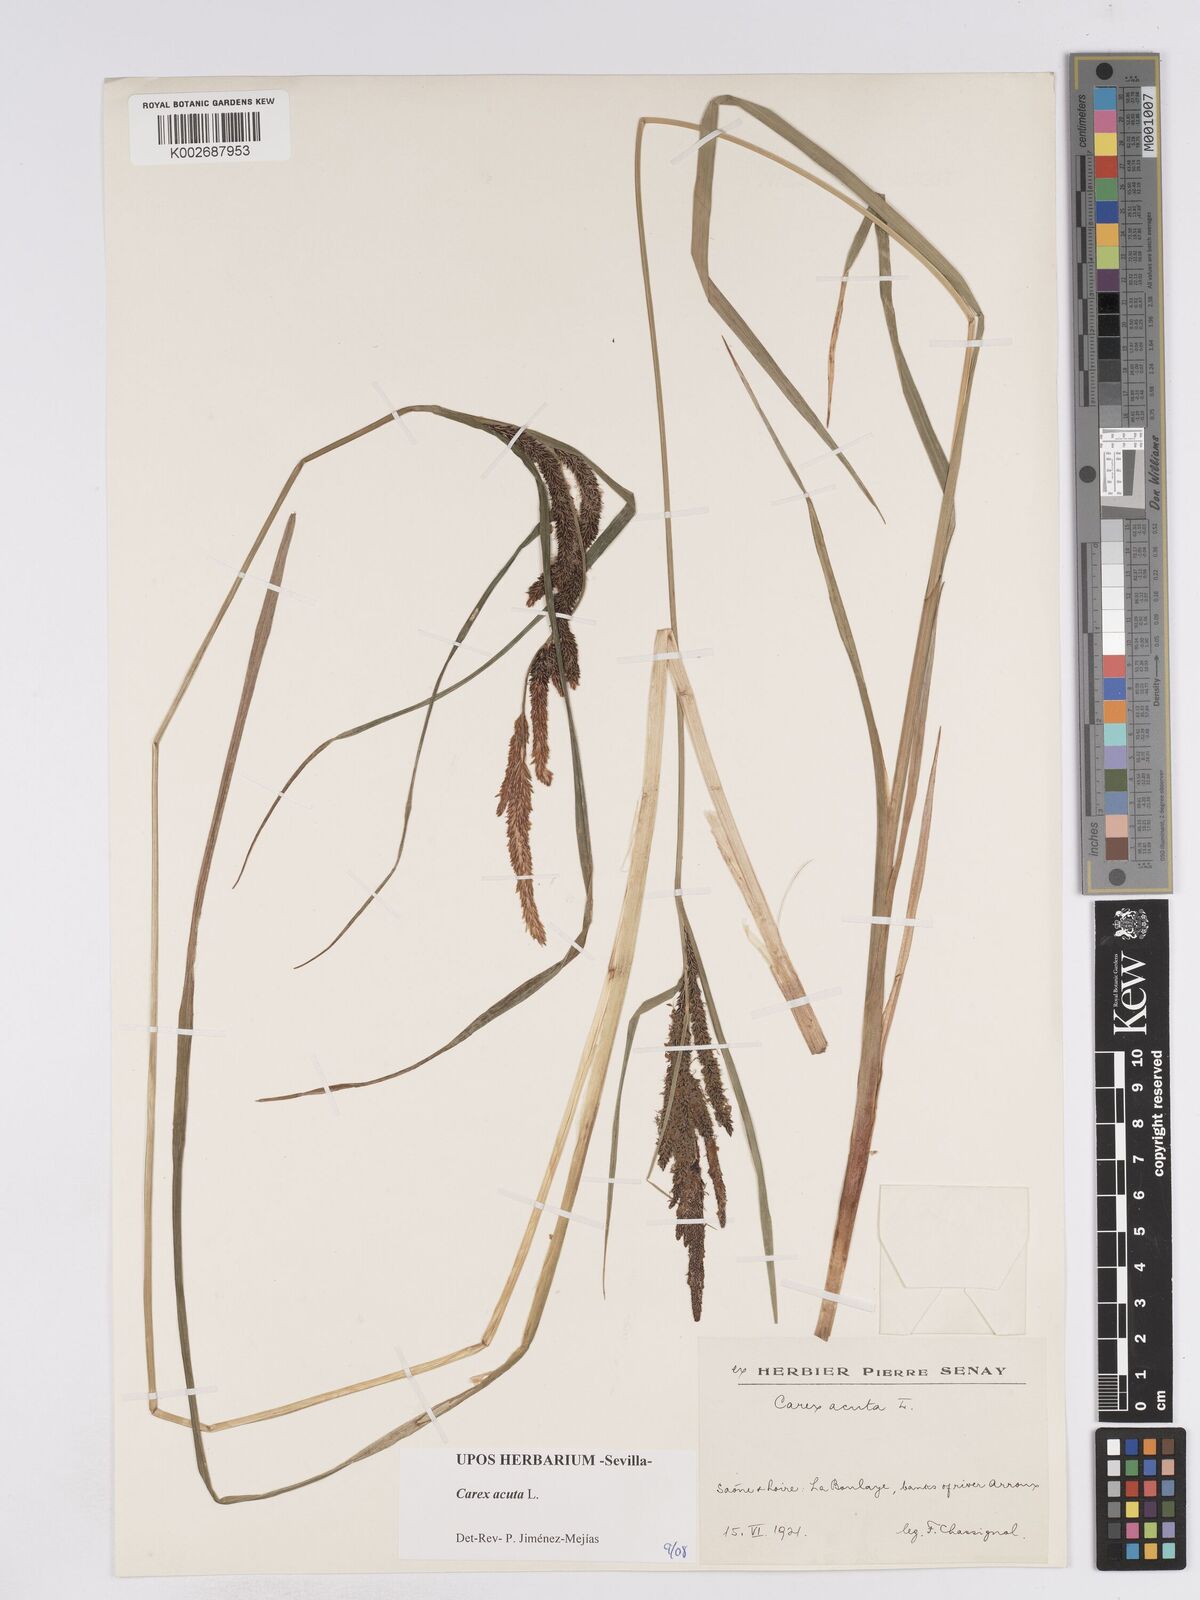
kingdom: Plantae
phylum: Tracheophyta
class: Liliopsida
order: Poales
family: Cyperaceae
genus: Carex
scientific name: Carex acuta
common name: Slender tufted-sedge
